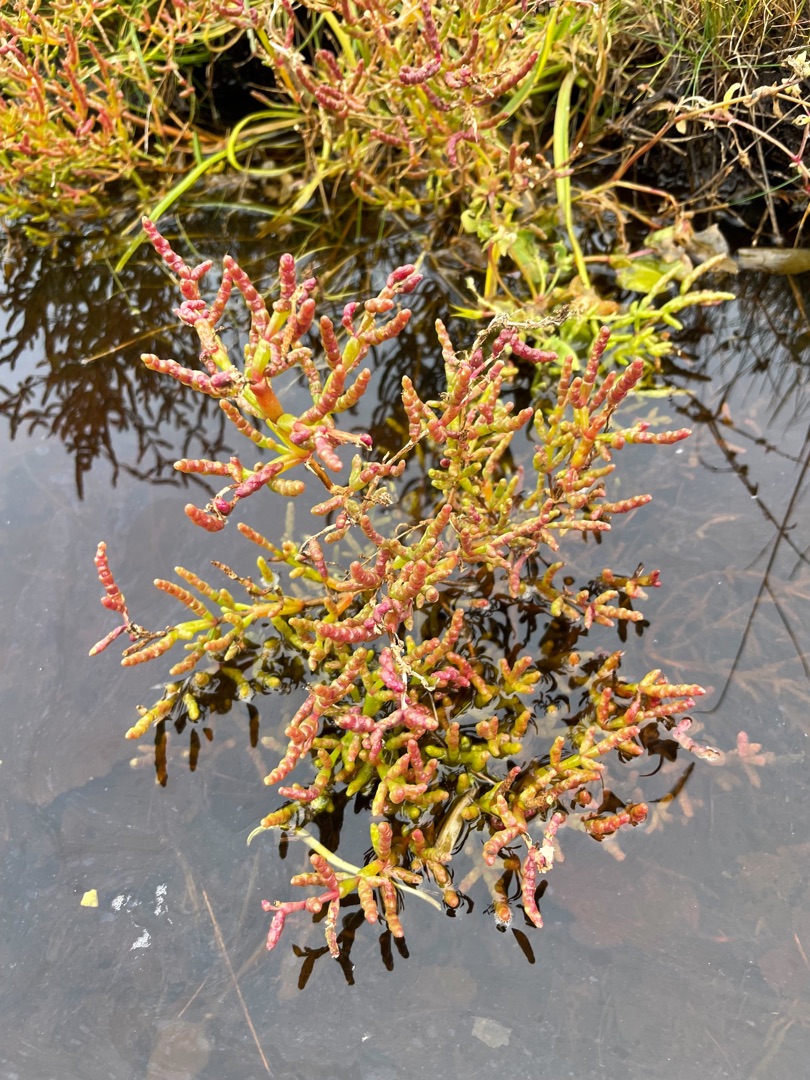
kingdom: Plantae
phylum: Tracheophyta
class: Magnoliopsida
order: Caryophyllales
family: Amaranthaceae
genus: Salicornia
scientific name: Salicornia europaea
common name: Almindelig salturt
